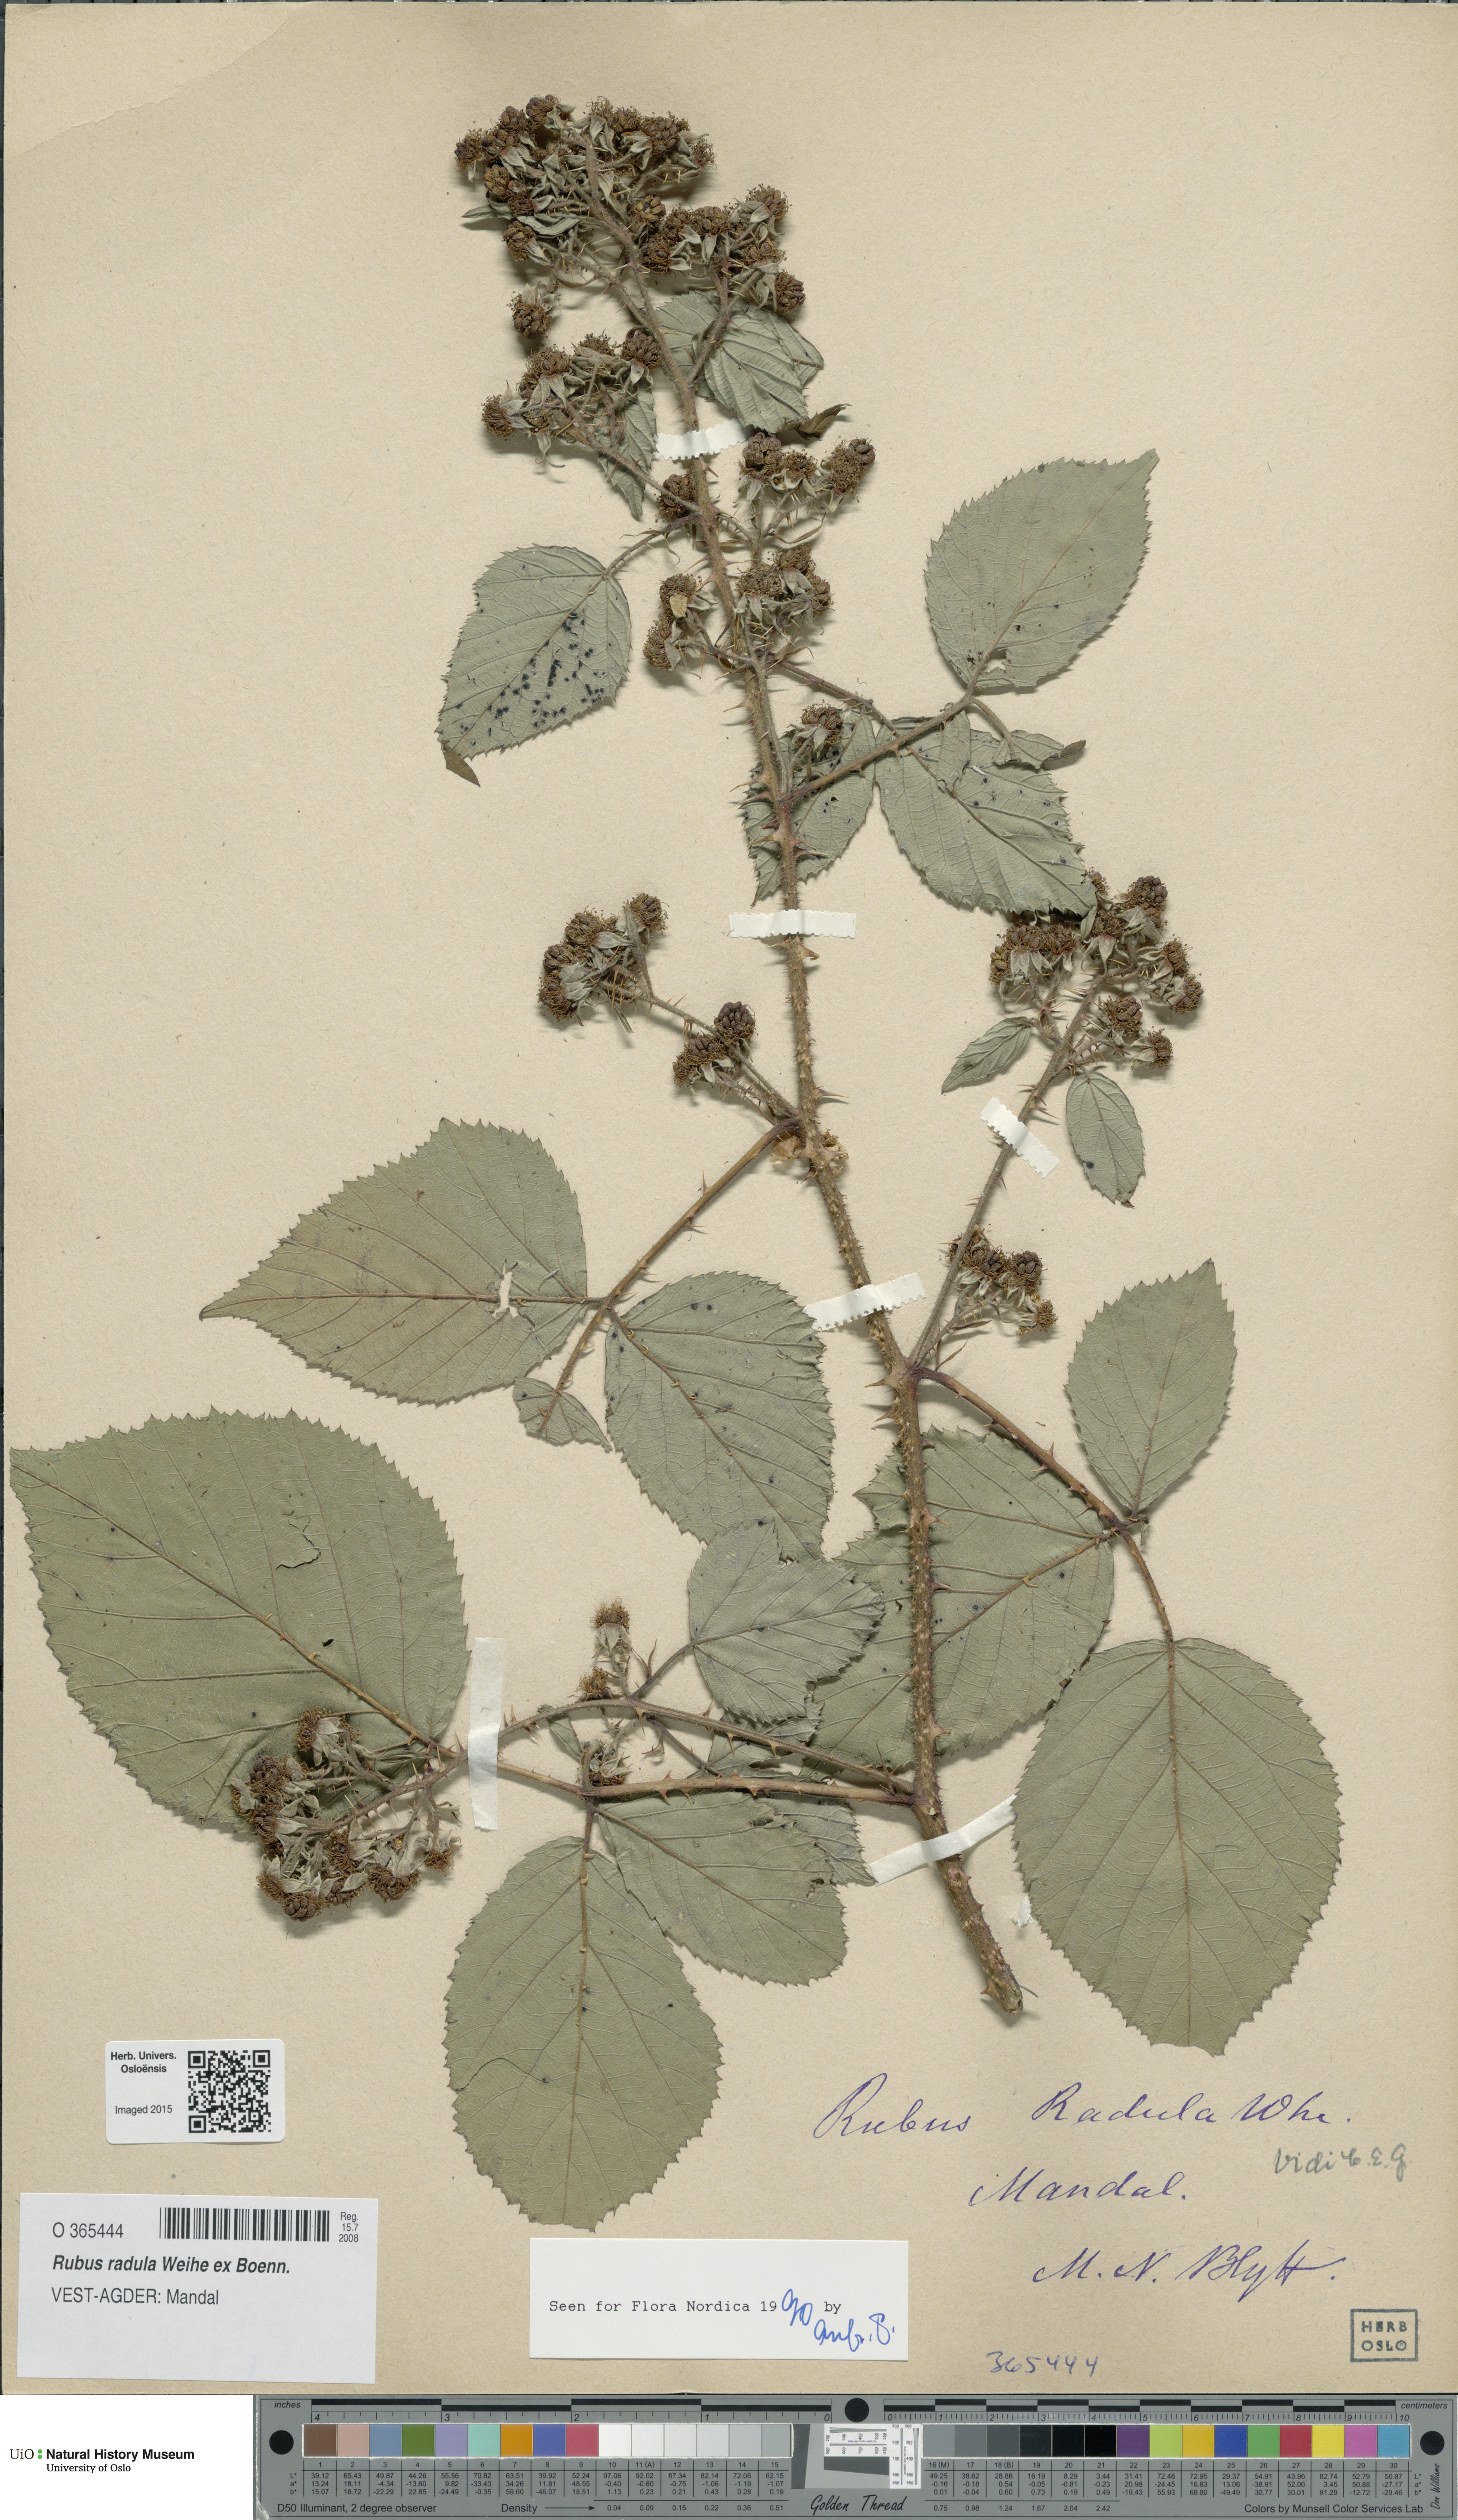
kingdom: Plantae
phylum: Tracheophyta
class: Magnoliopsida
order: Rosales
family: Rosaceae
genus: Rubus
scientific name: Rubus radula
